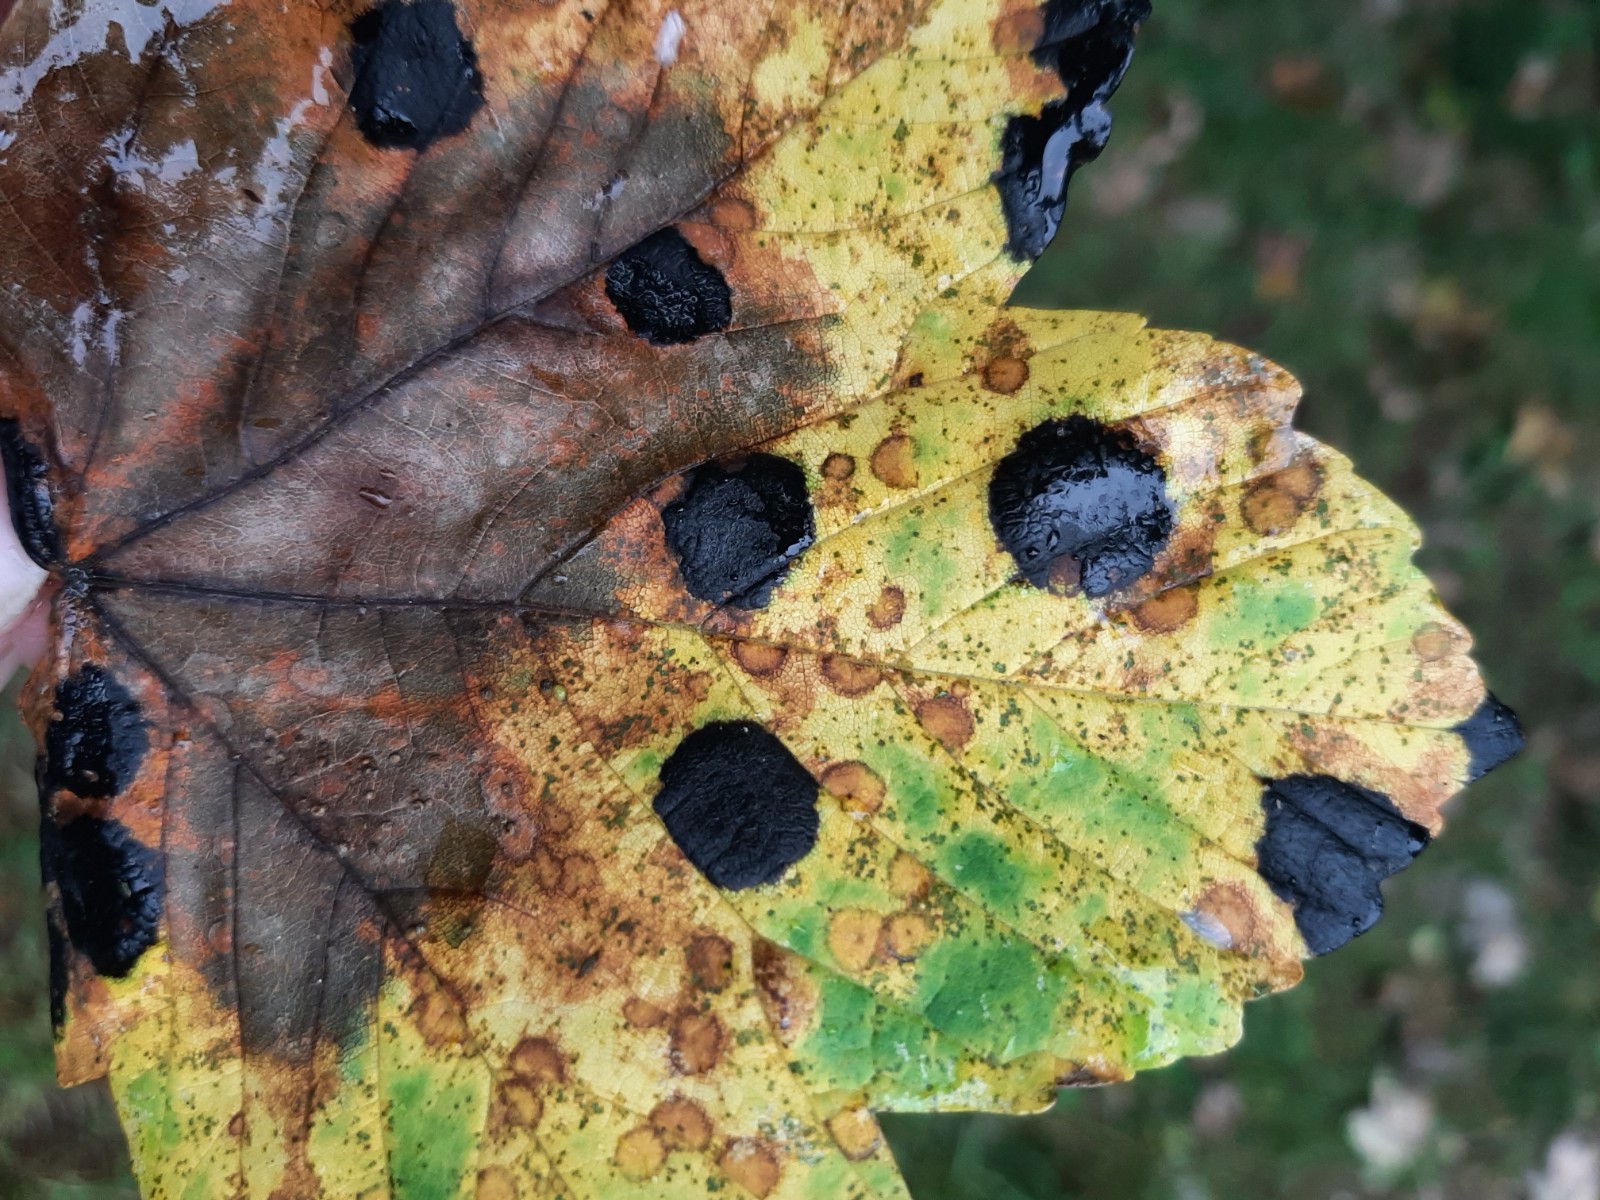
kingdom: Fungi
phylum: Ascomycota
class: Leotiomycetes
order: Rhytismatales
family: Rhytismataceae
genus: Rhytisma
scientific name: Rhytisma acerinum
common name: ahorn-rynkeplet
